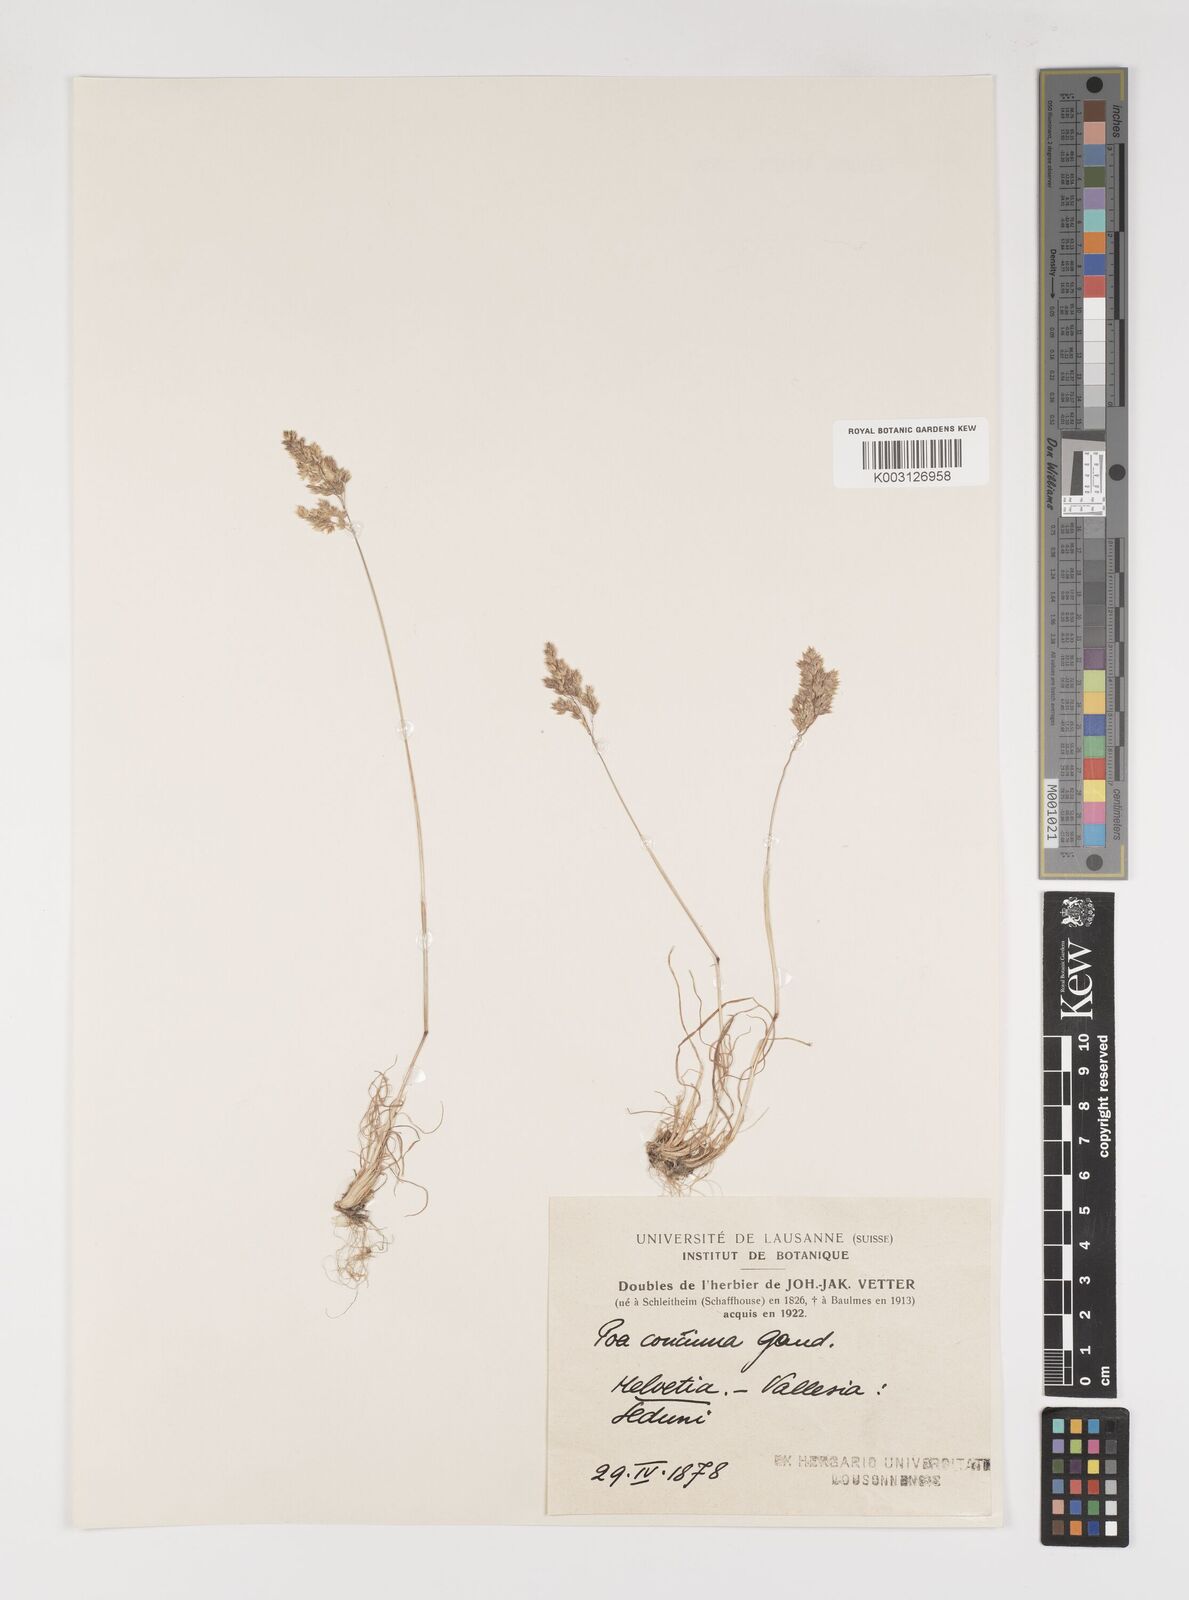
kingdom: Plantae
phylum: Tracheophyta
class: Liliopsida
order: Poales
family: Poaceae
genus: Poa
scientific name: Poa perconcinna
